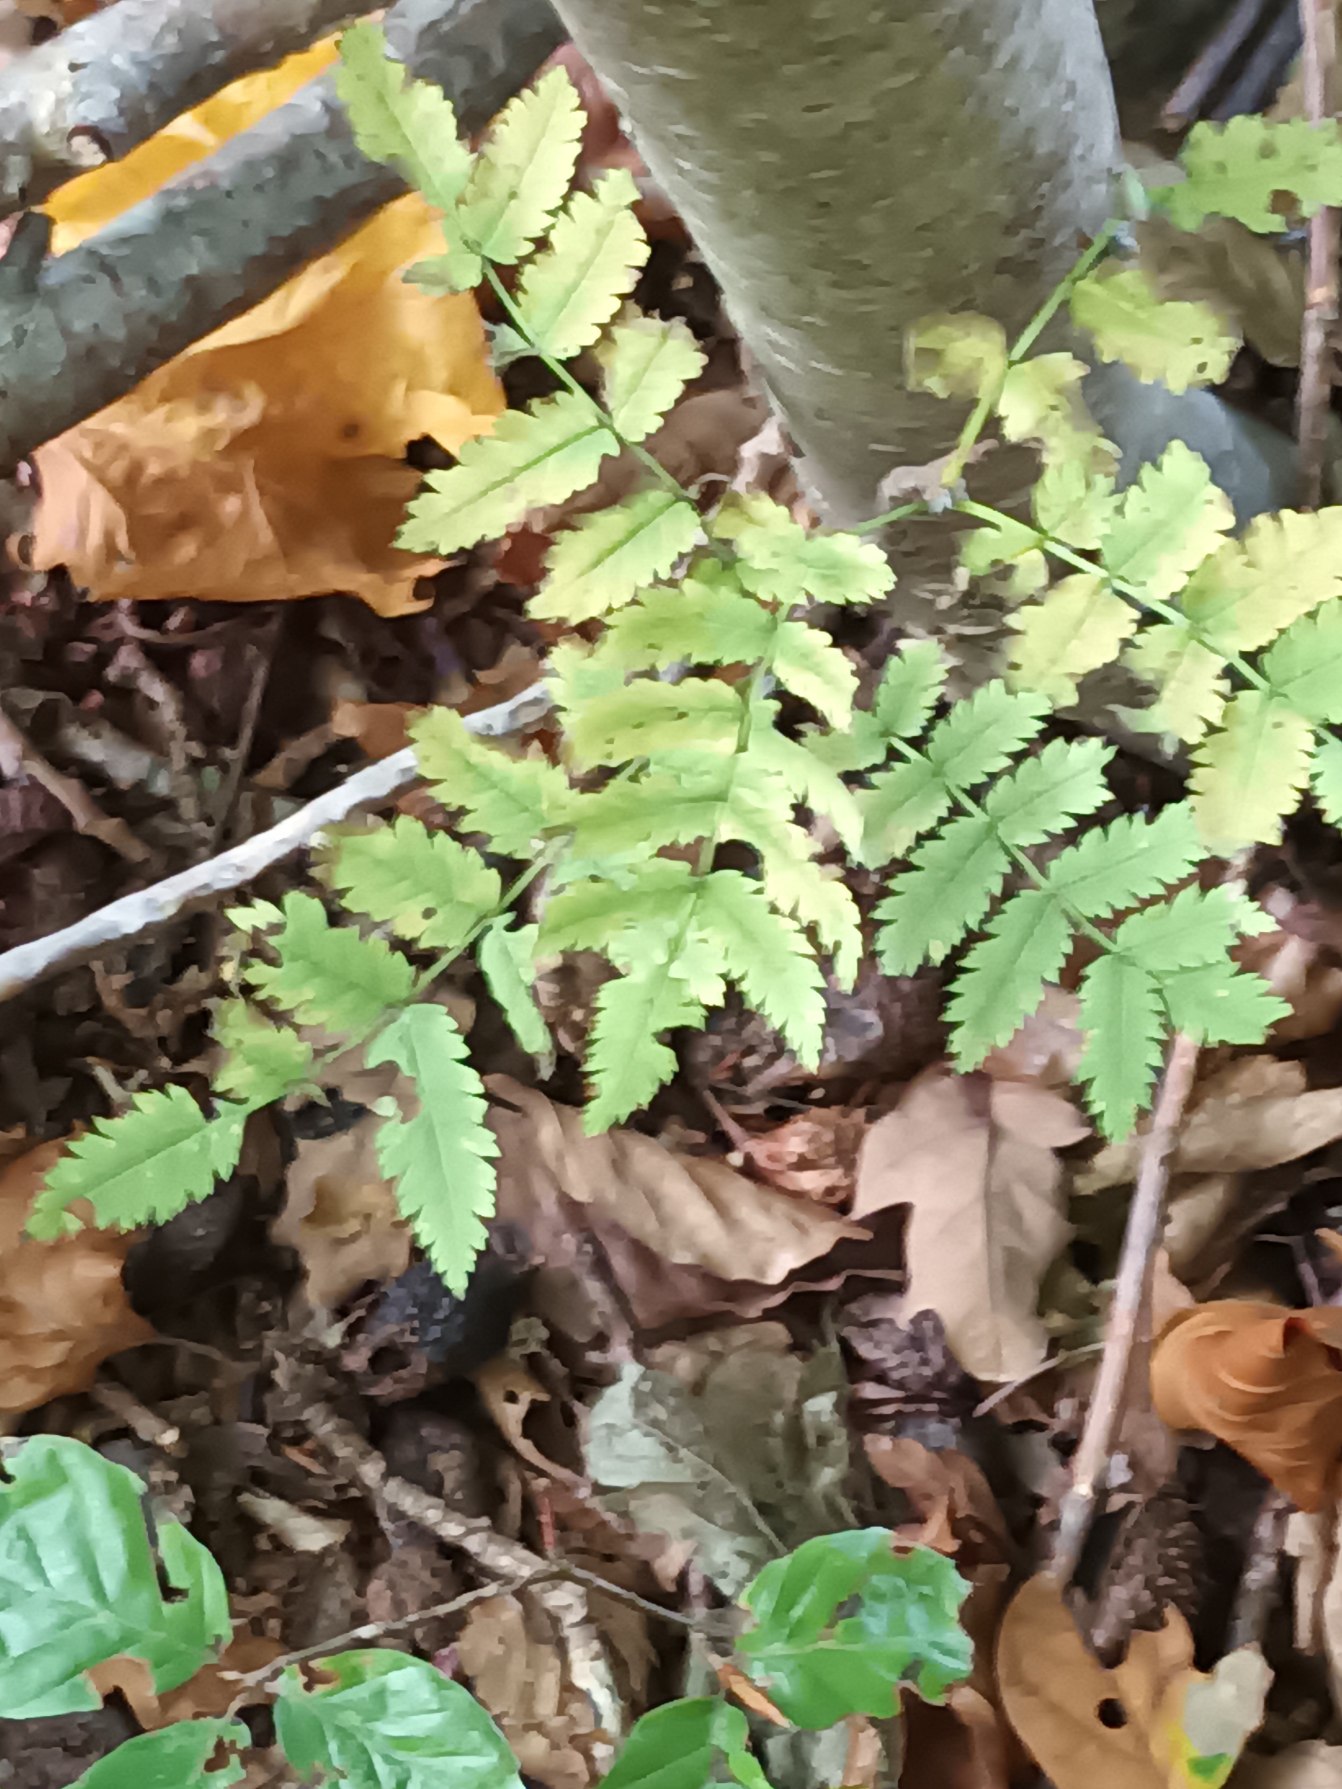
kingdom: Plantae
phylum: Tracheophyta
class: Magnoliopsida
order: Rosales
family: Rosaceae
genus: Sorbus
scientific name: Sorbus aucuparia
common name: Almindelig røn
